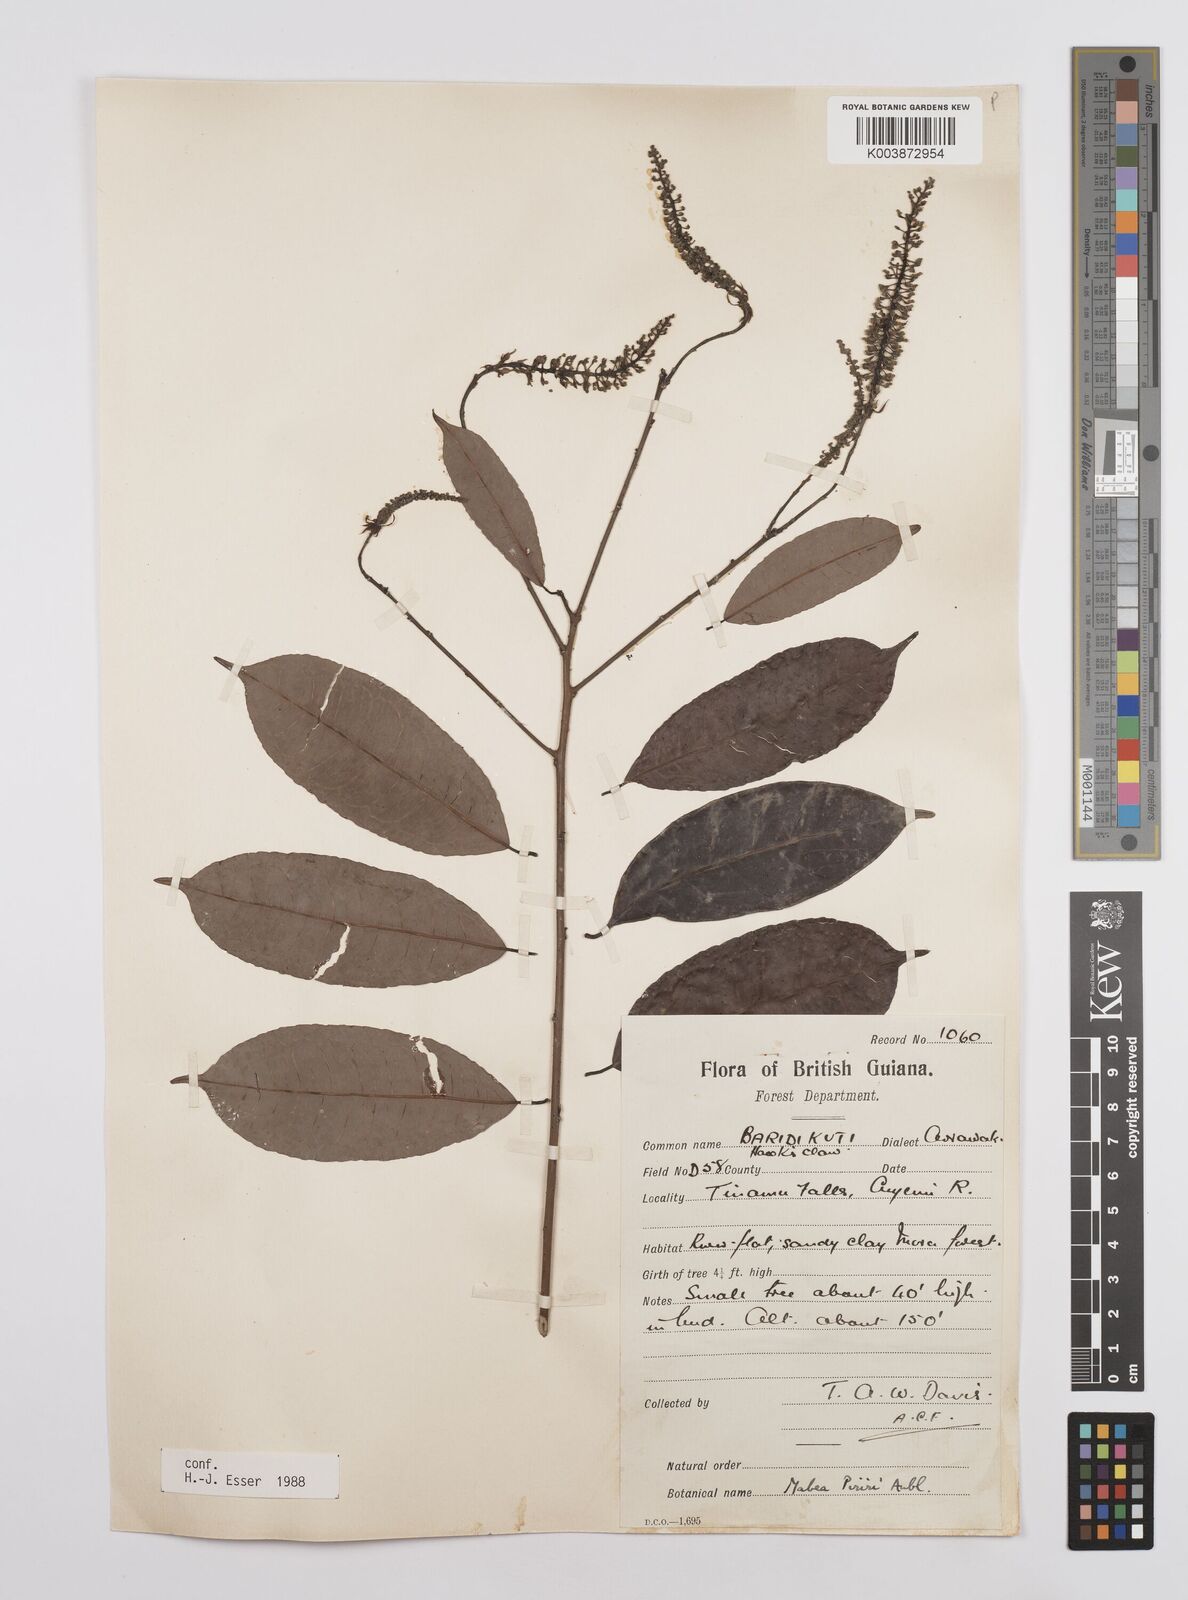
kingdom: Plantae
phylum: Tracheophyta
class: Magnoliopsida
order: Malpighiales
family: Euphorbiaceae
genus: Mabea
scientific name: Mabea piriri
